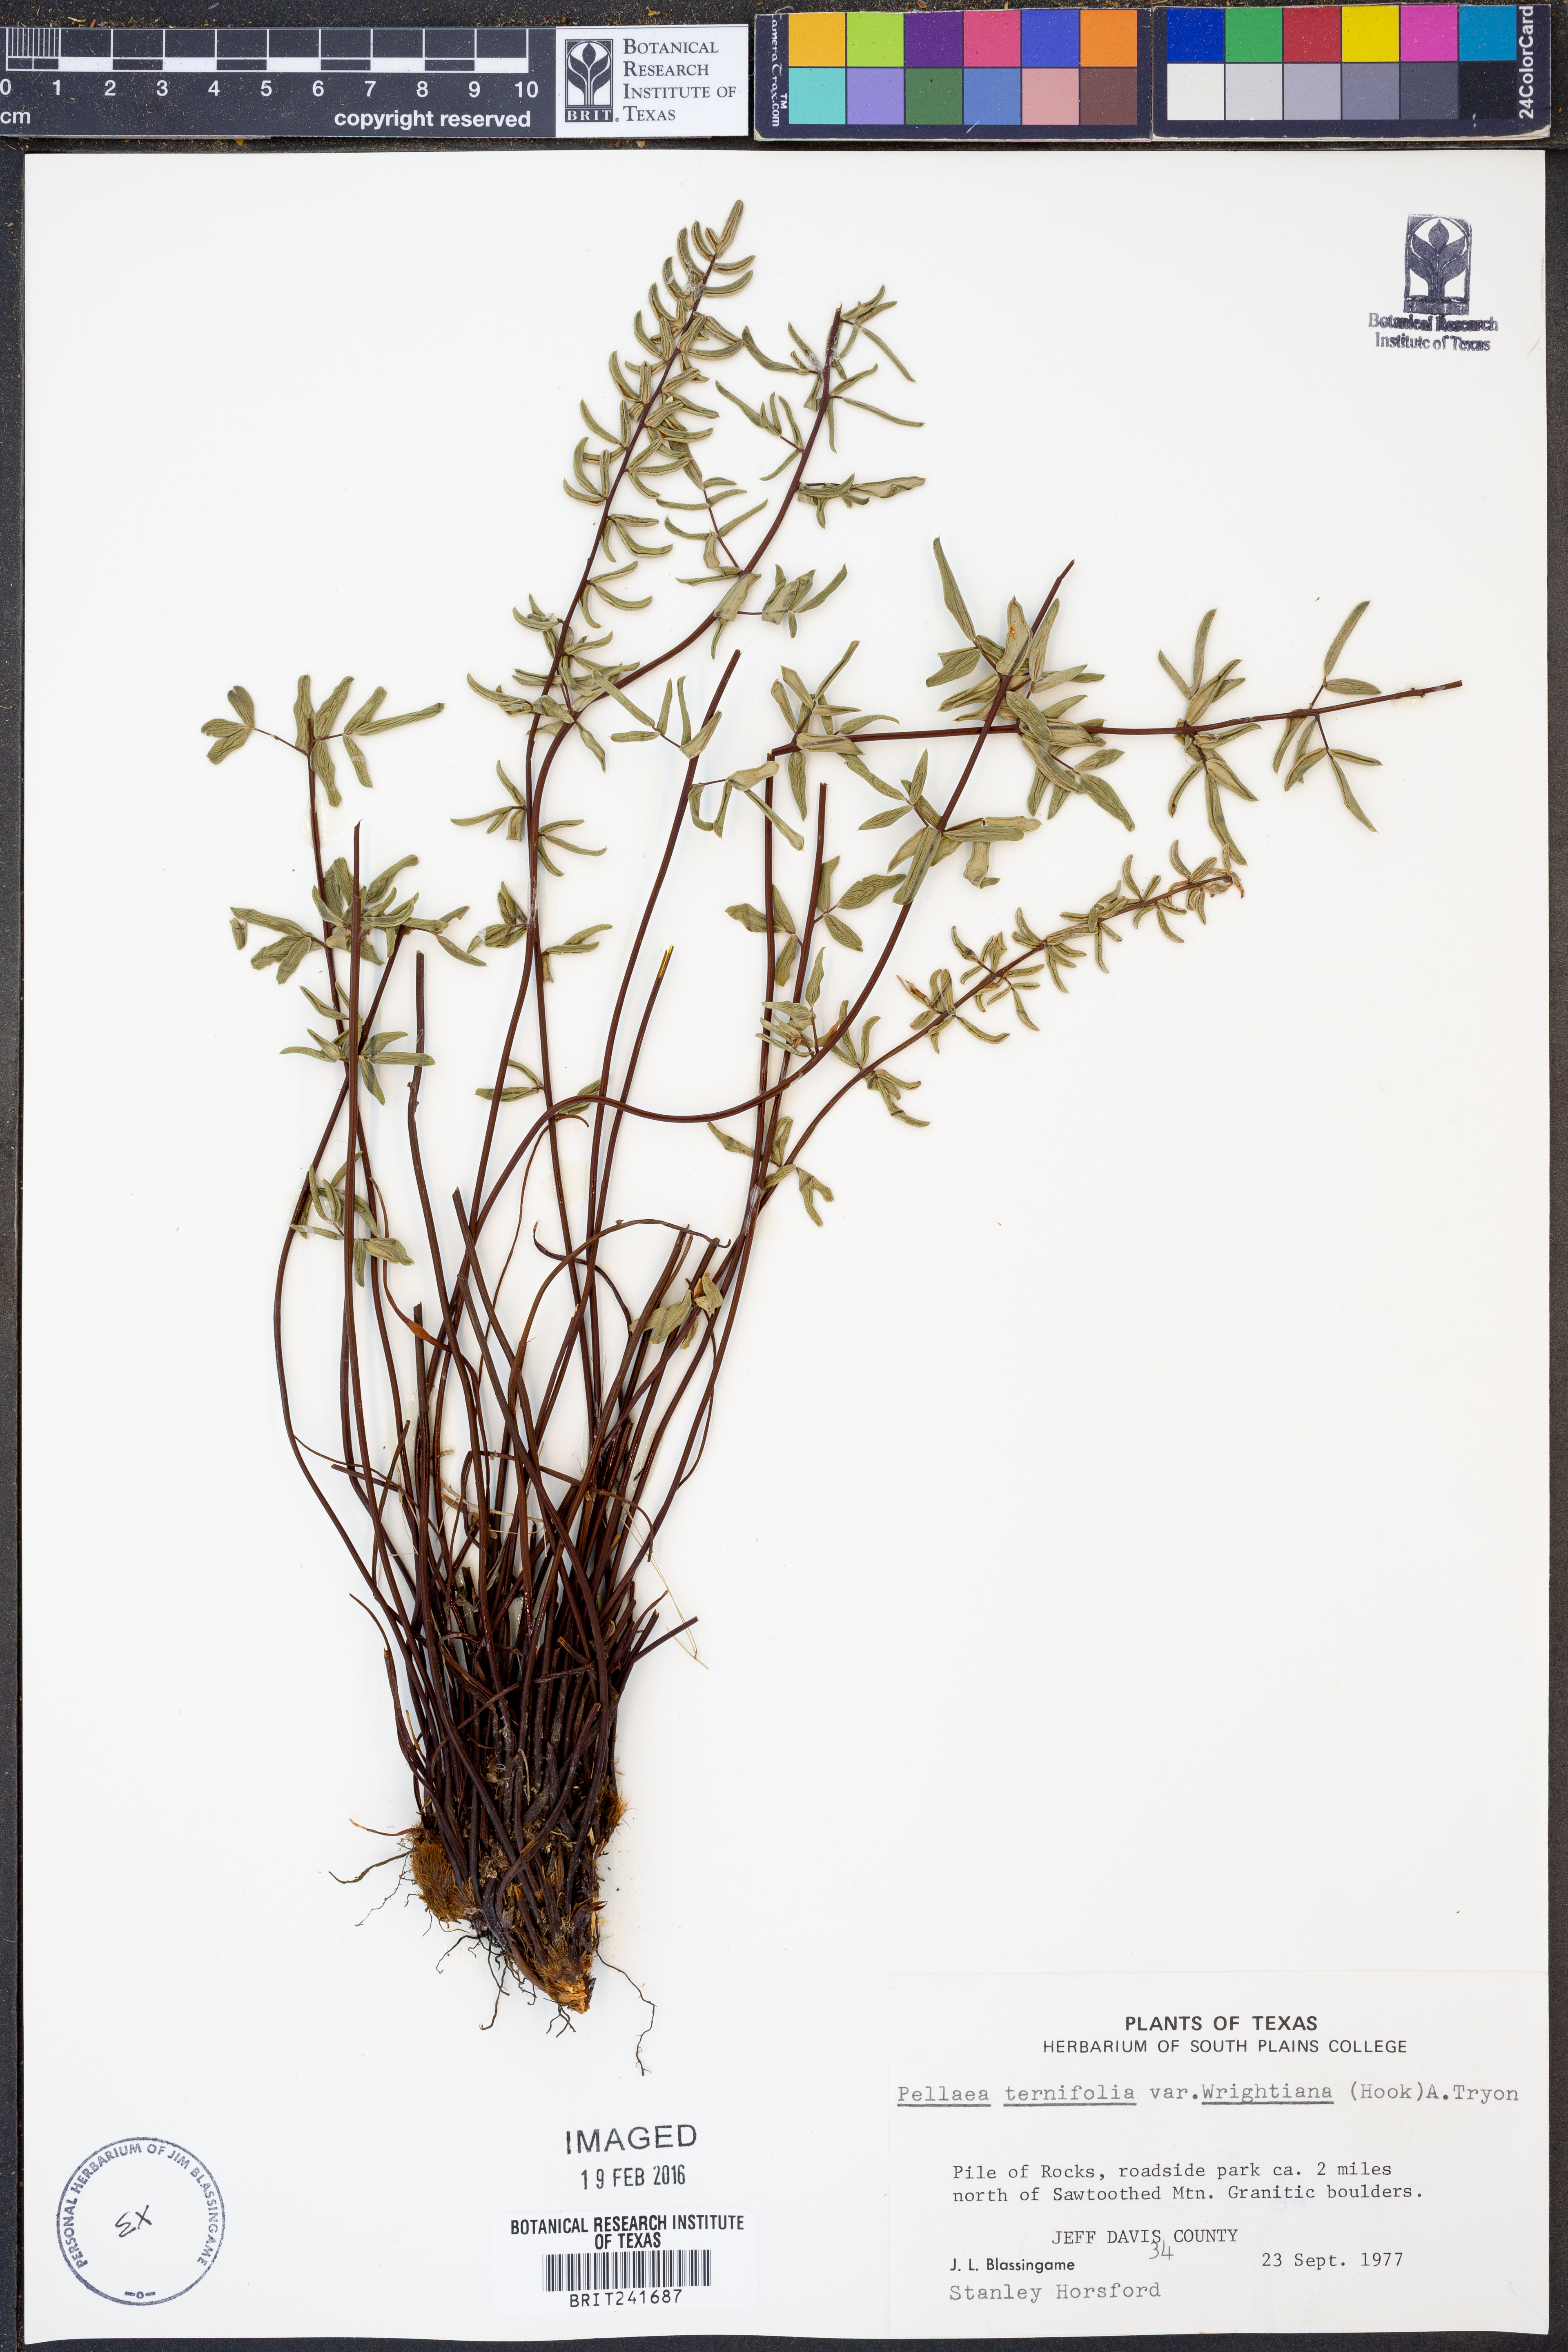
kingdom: Plantae
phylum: Tracheophyta
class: Polypodiopsida
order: Polypodiales
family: Pteridaceae
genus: Pellaea
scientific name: Pellaea wrightiana
